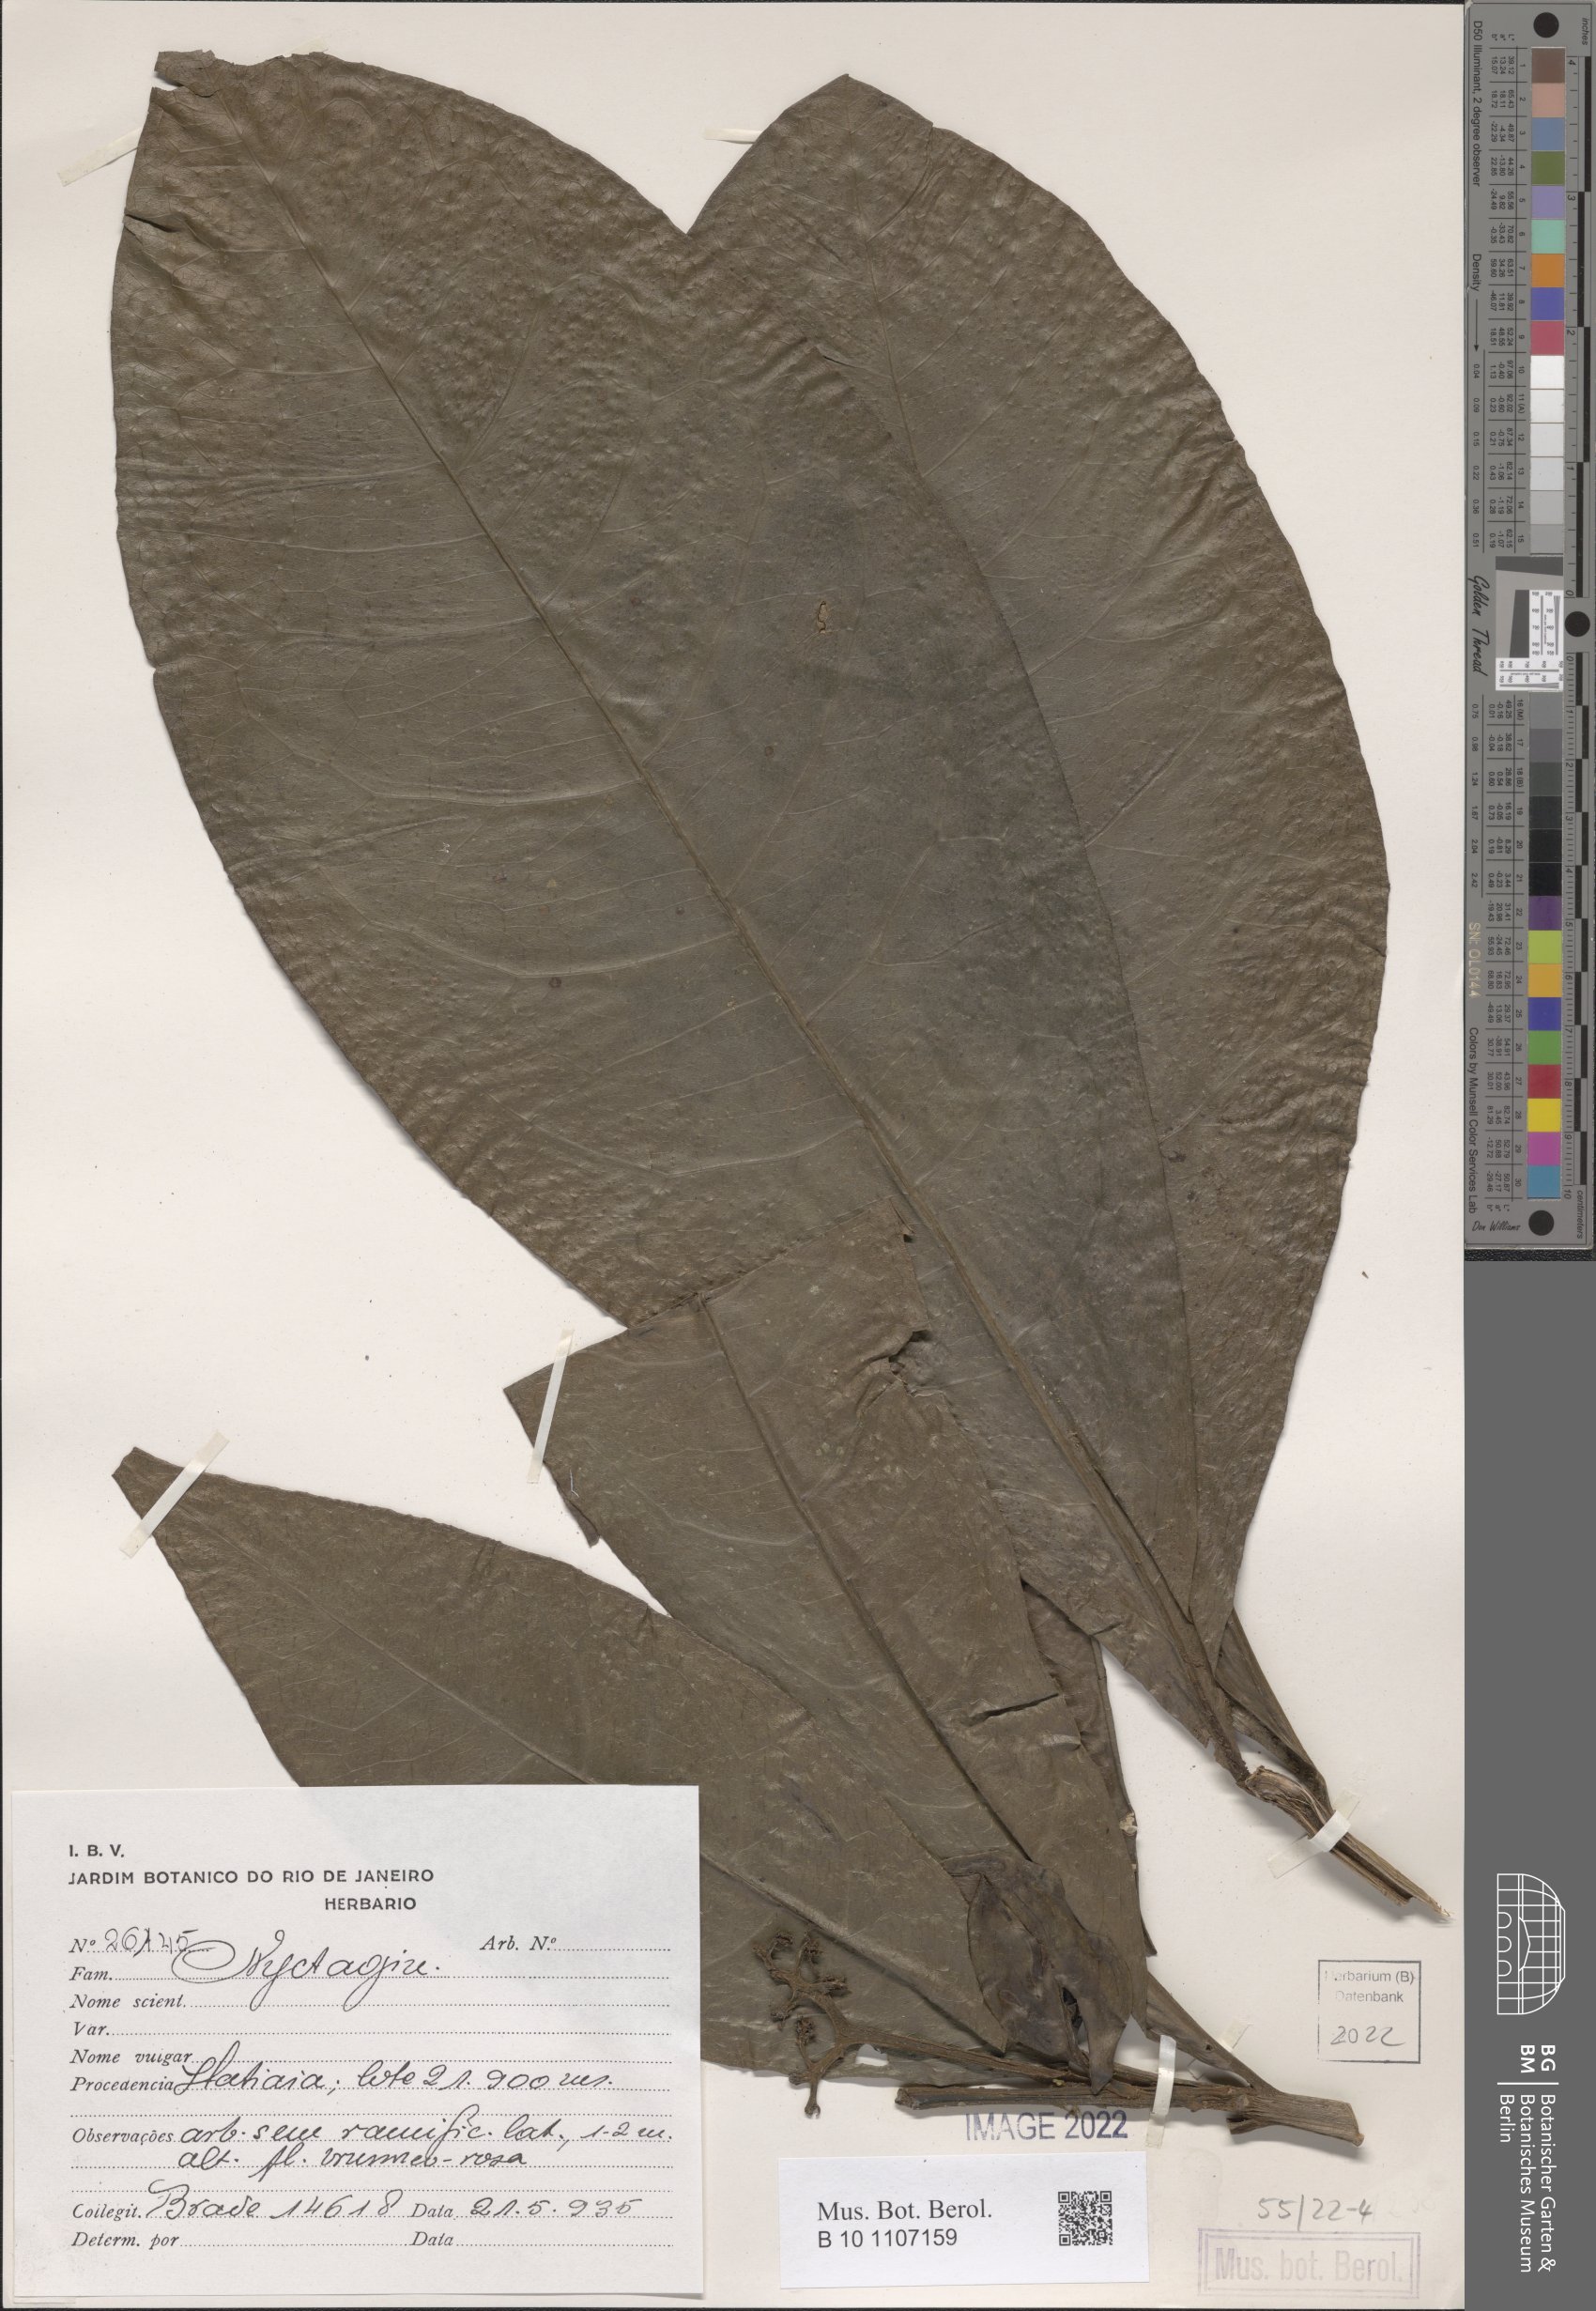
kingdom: Plantae
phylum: Tracheophyta
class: Magnoliopsida
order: Caryophyllales
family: Nyctaginaceae
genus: Neea
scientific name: Neea
